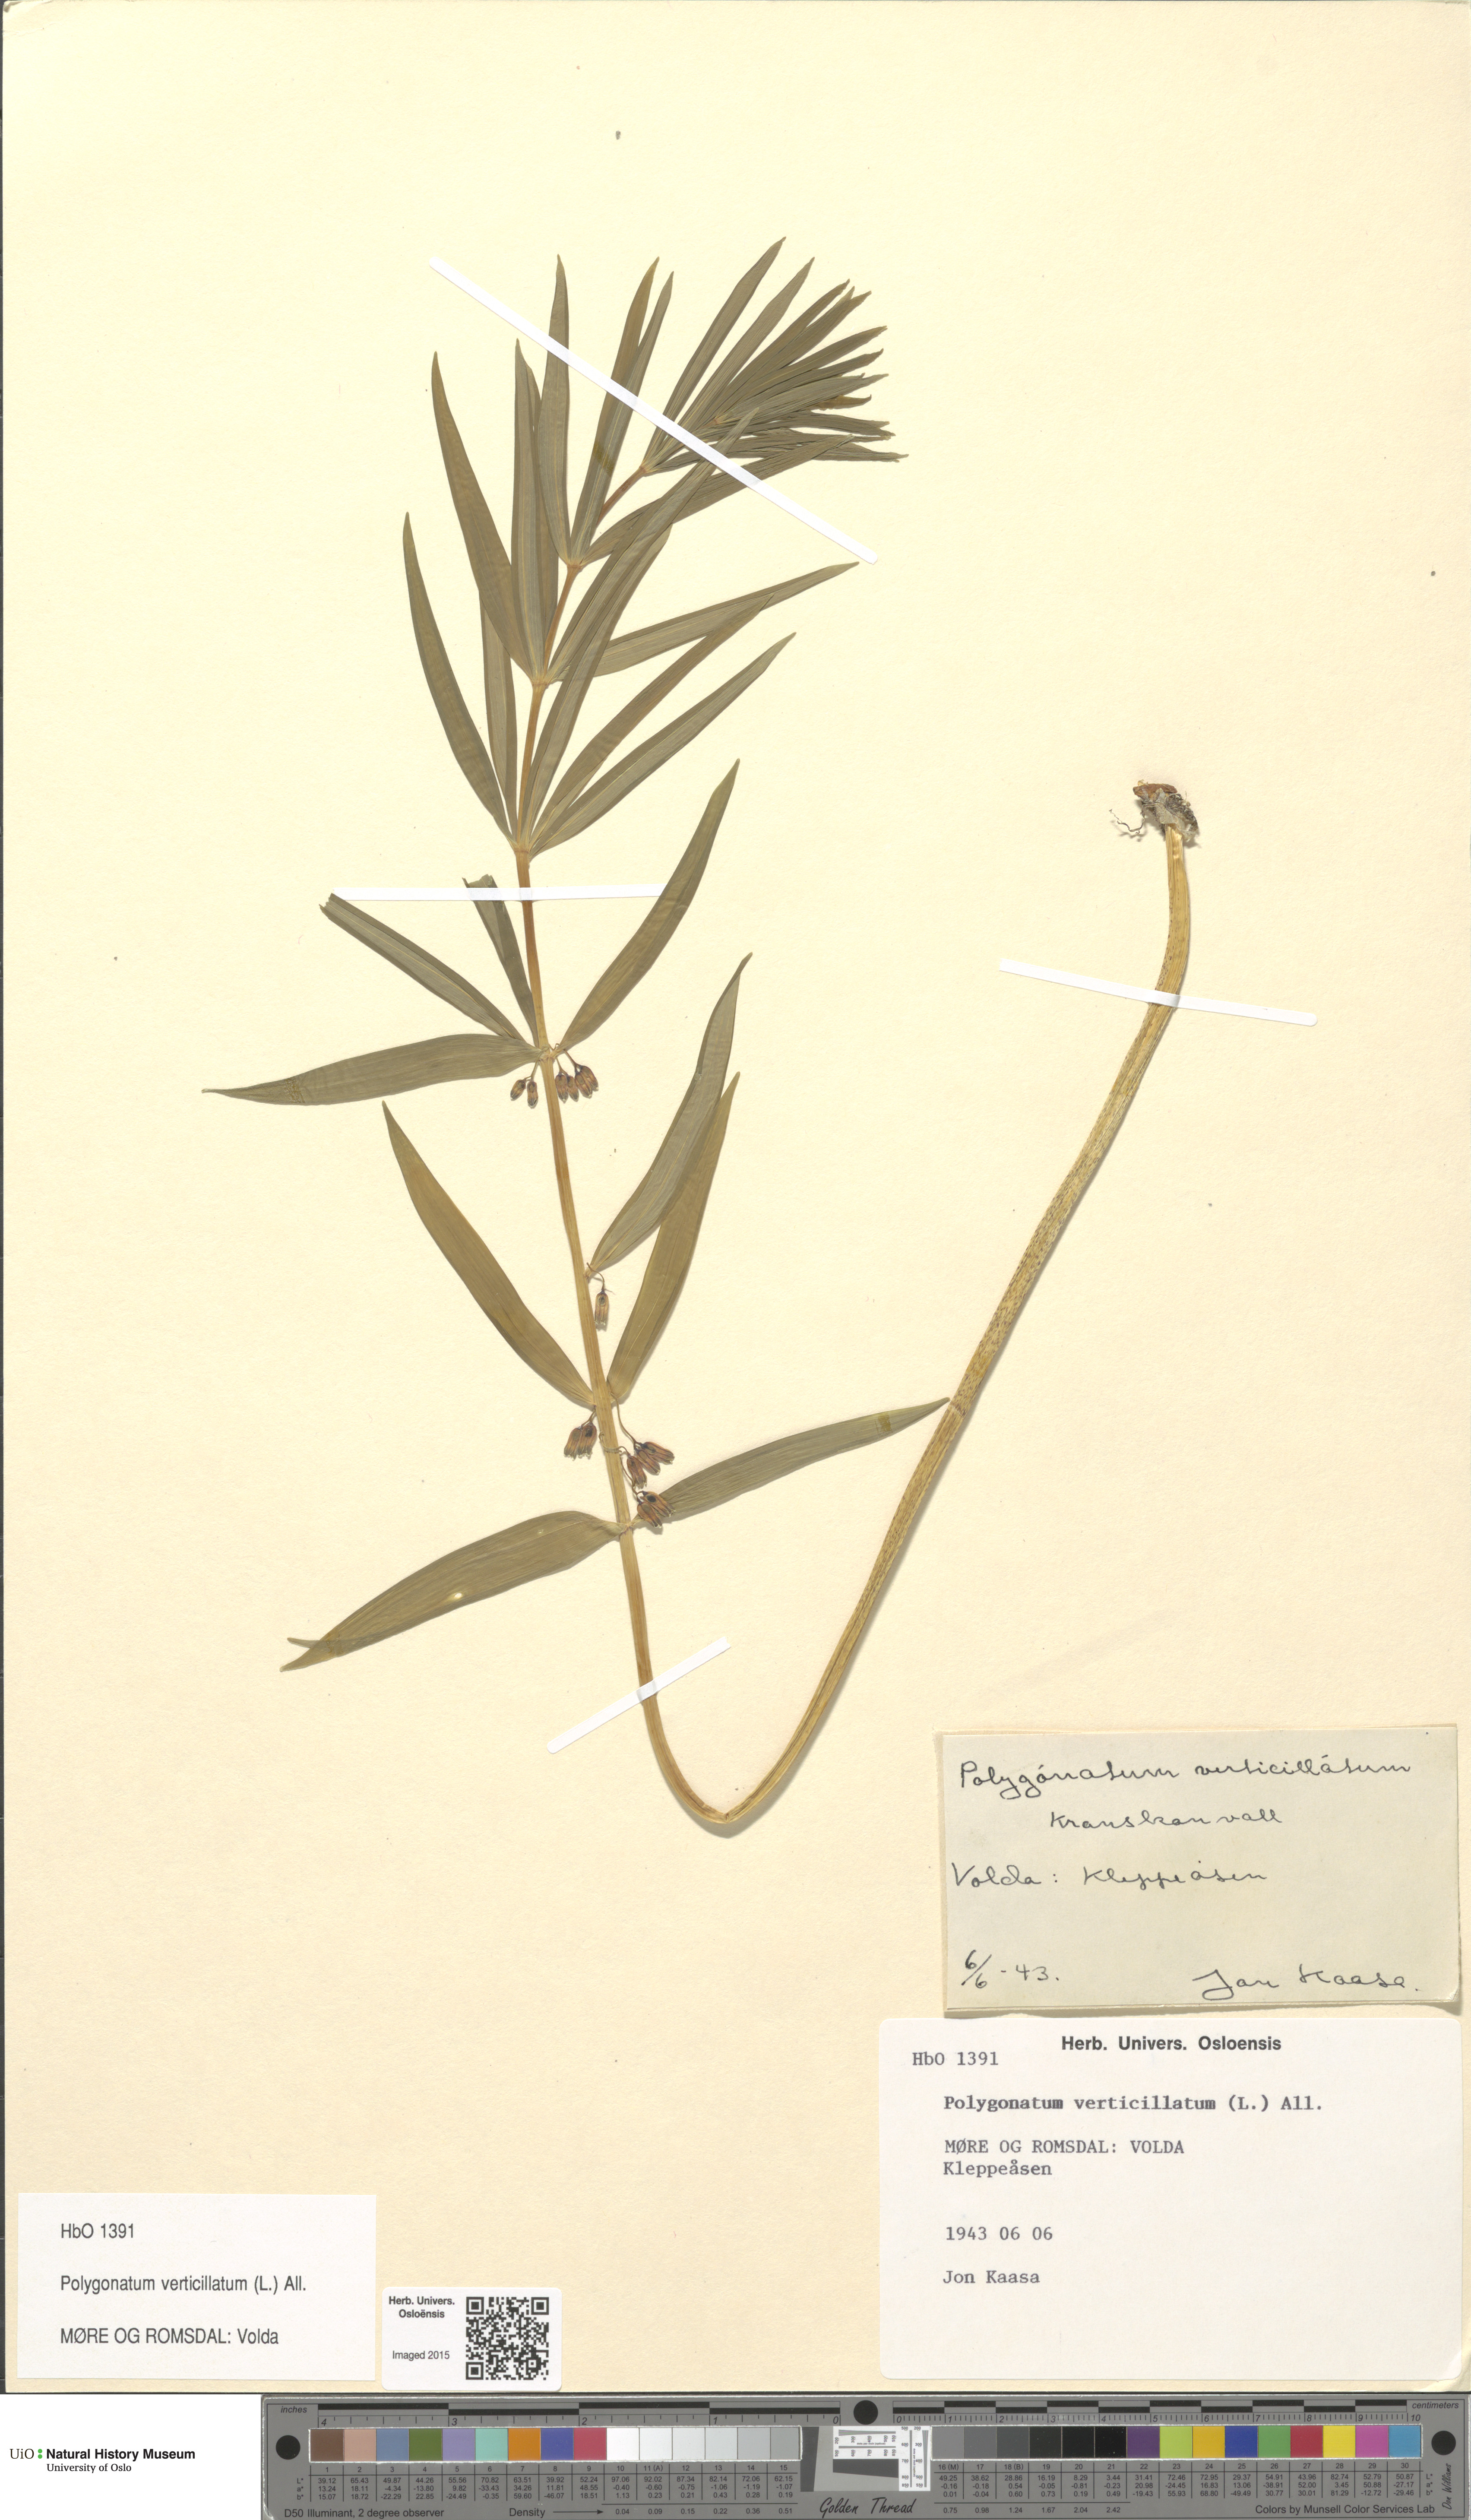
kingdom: Plantae
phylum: Tracheophyta
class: Liliopsida
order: Asparagales
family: Asparagaceae
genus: Polygonatum
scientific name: Polygonatum verticillatum
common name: Whorled solomon's-seal
